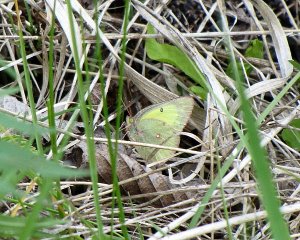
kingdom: Animalia
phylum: Arthropoda
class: Insecta
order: Lepidoptera
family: Pieridae
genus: Colias
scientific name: Colias philodice
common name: Clouded Sulphur
